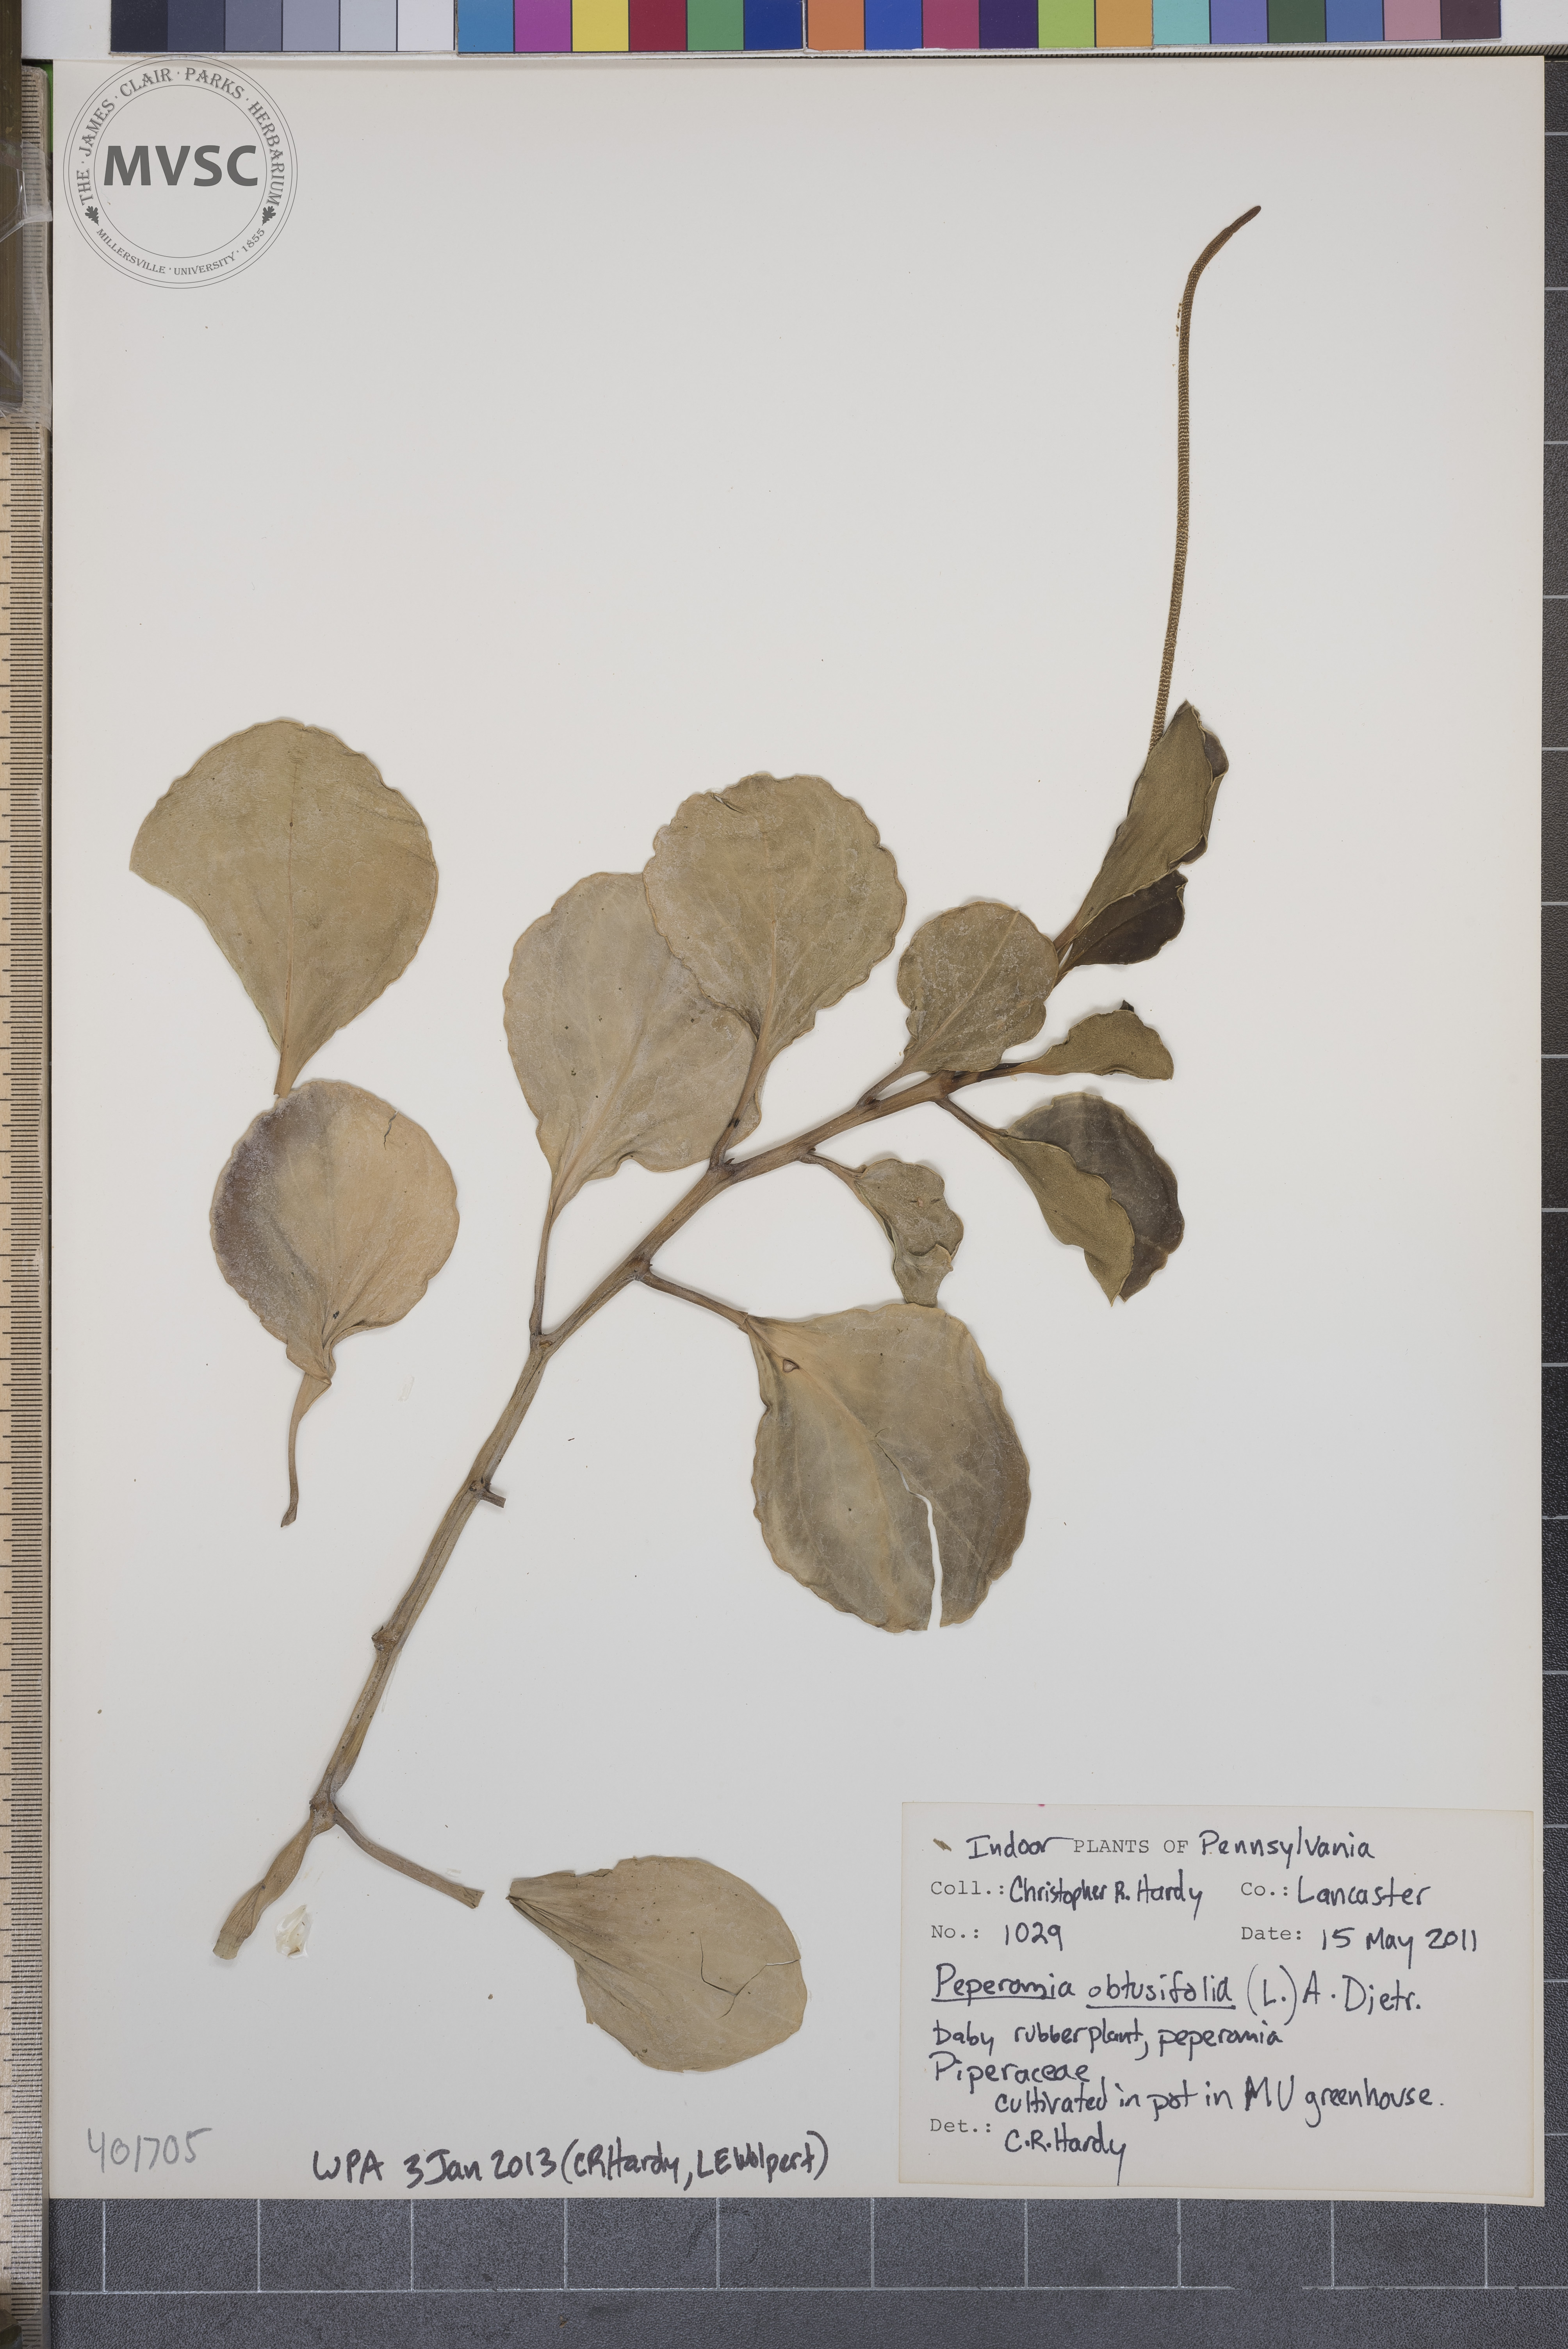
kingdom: Plantae
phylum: Tracheophyta
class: Magnoliopsida
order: Piperales
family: Piperaceae
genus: Peperomia
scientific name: Peperomia obtusifolia
